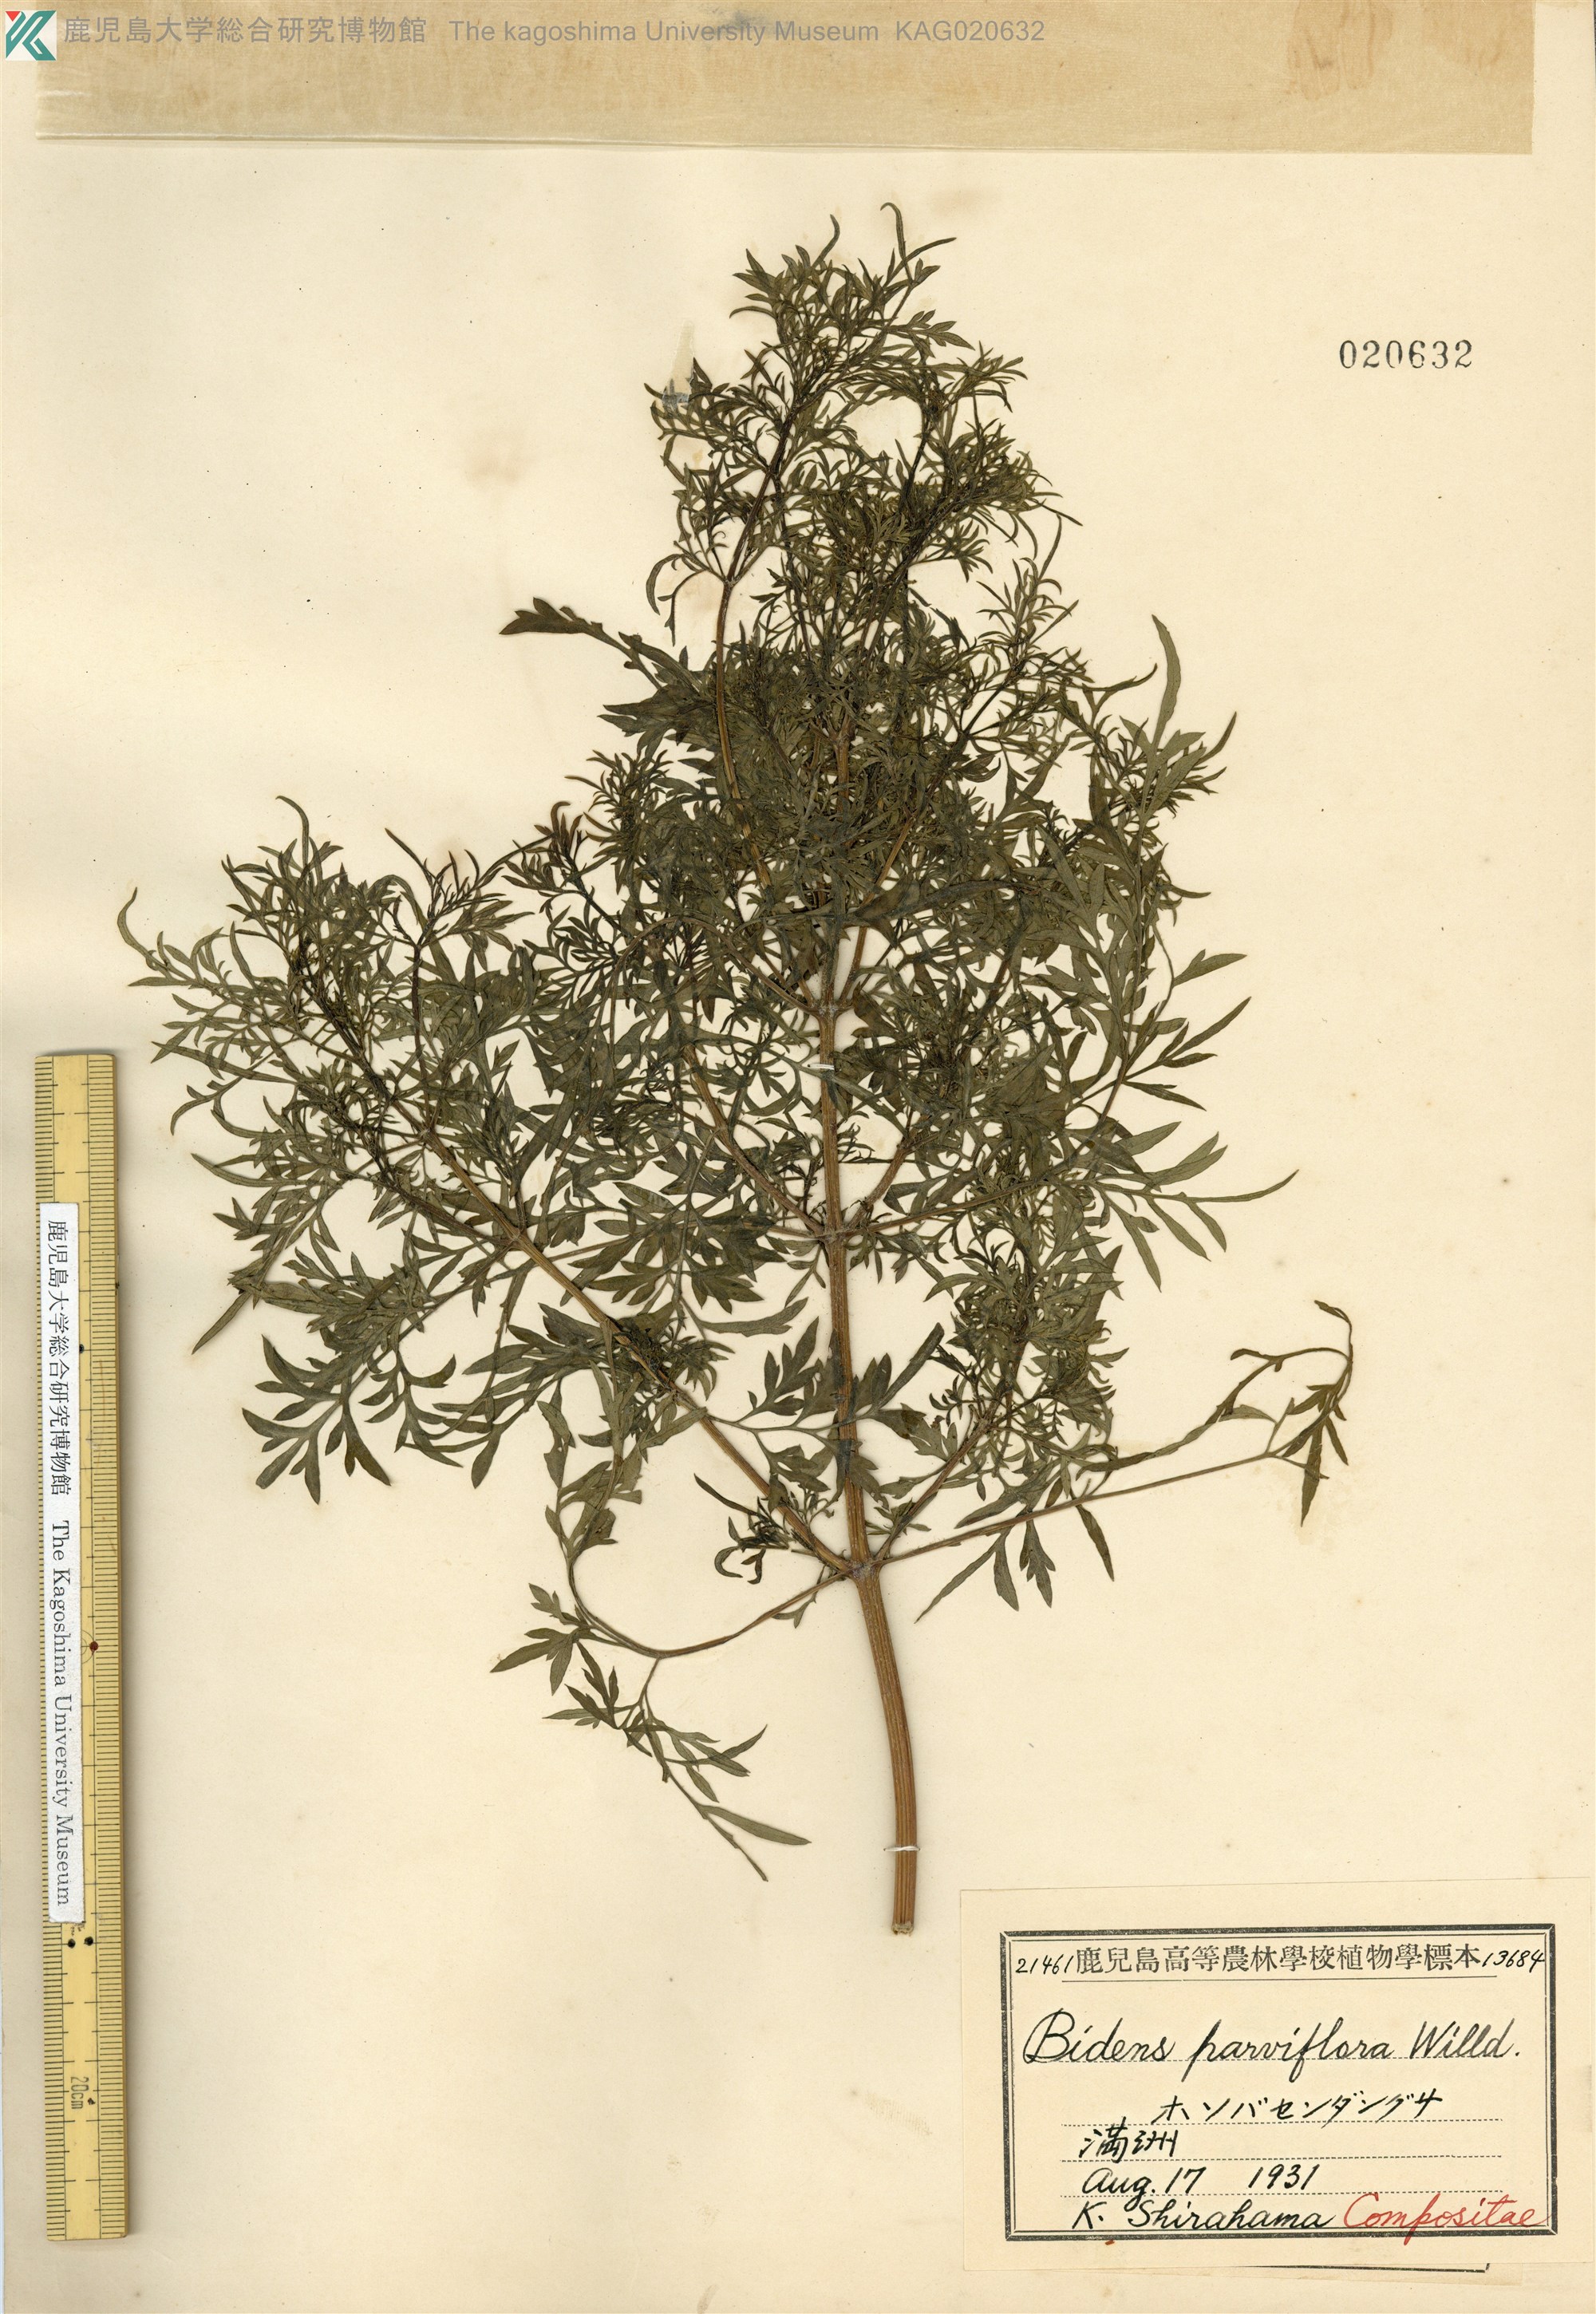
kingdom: Plantae
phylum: Tracheophyta
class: Magnoliopsida
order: Asterales
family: Asteraceae
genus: Bidens
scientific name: Bidens parviflora
